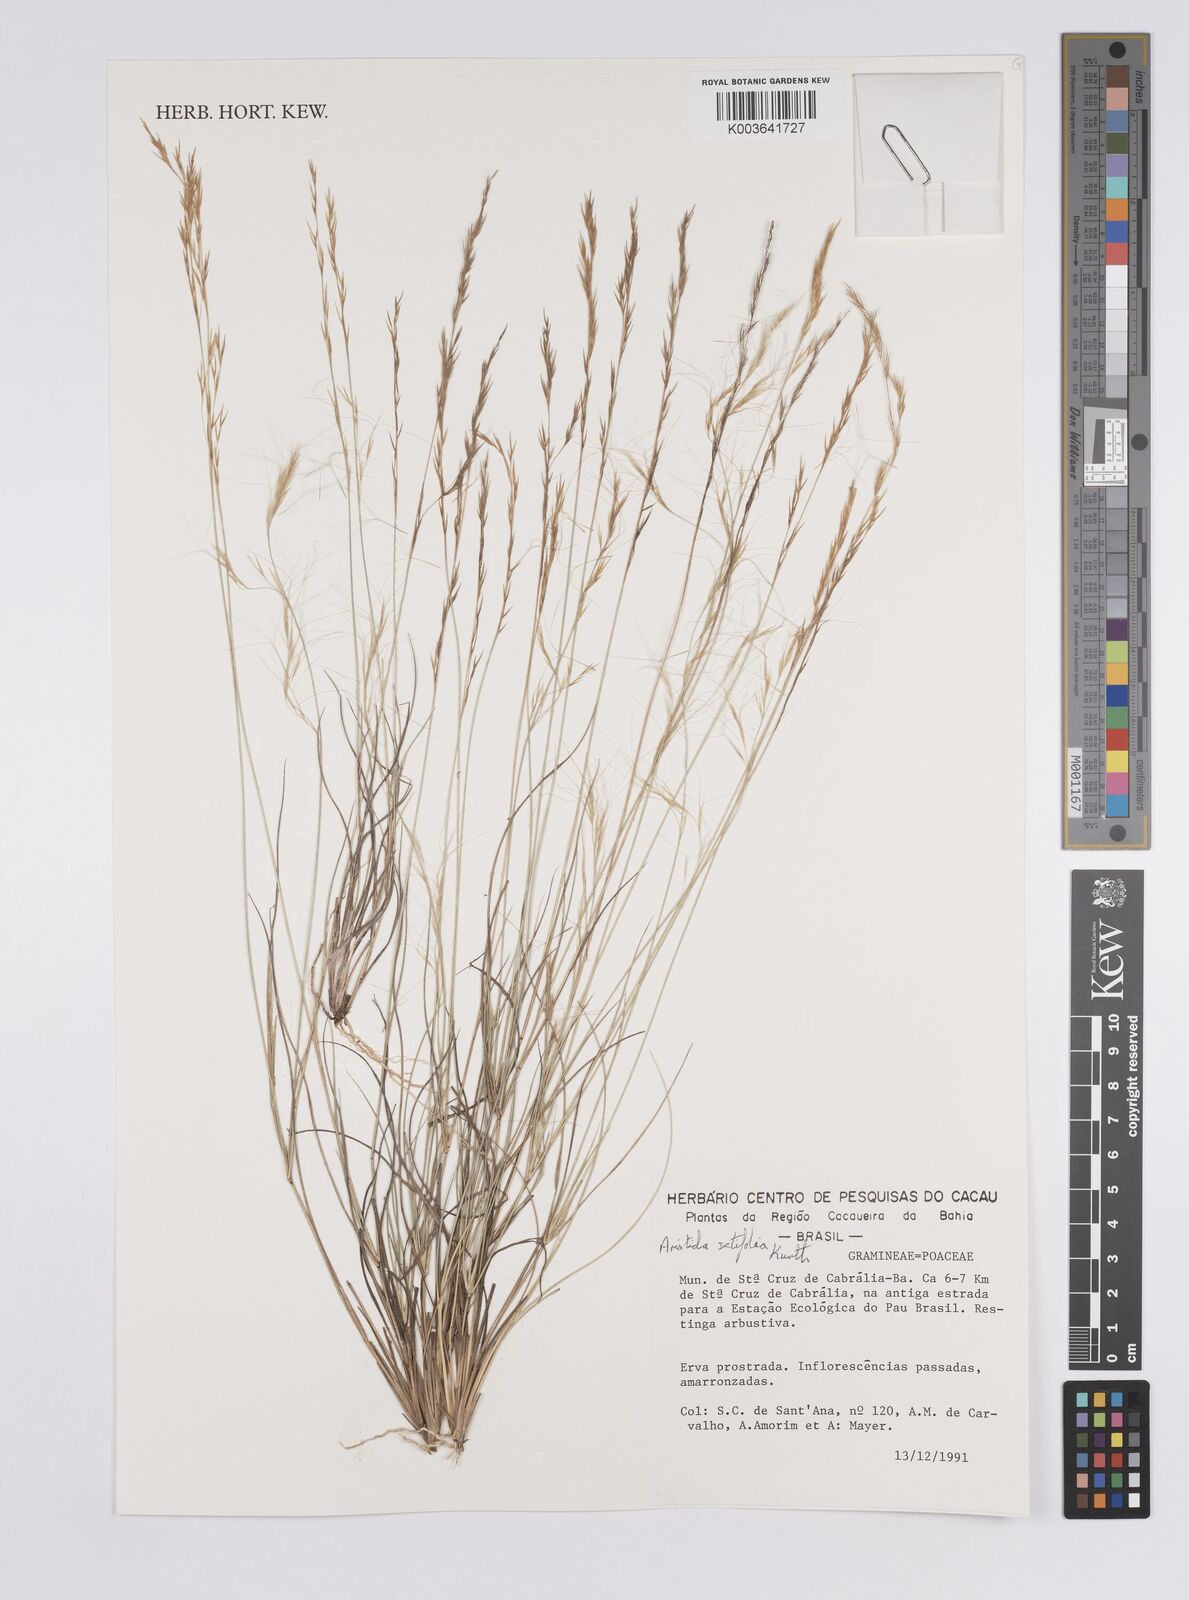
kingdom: Plantae
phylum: Tracheophyta
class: Liliopsida
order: Poales
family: Poaceae
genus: Aristida
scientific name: Aristida setifolia
